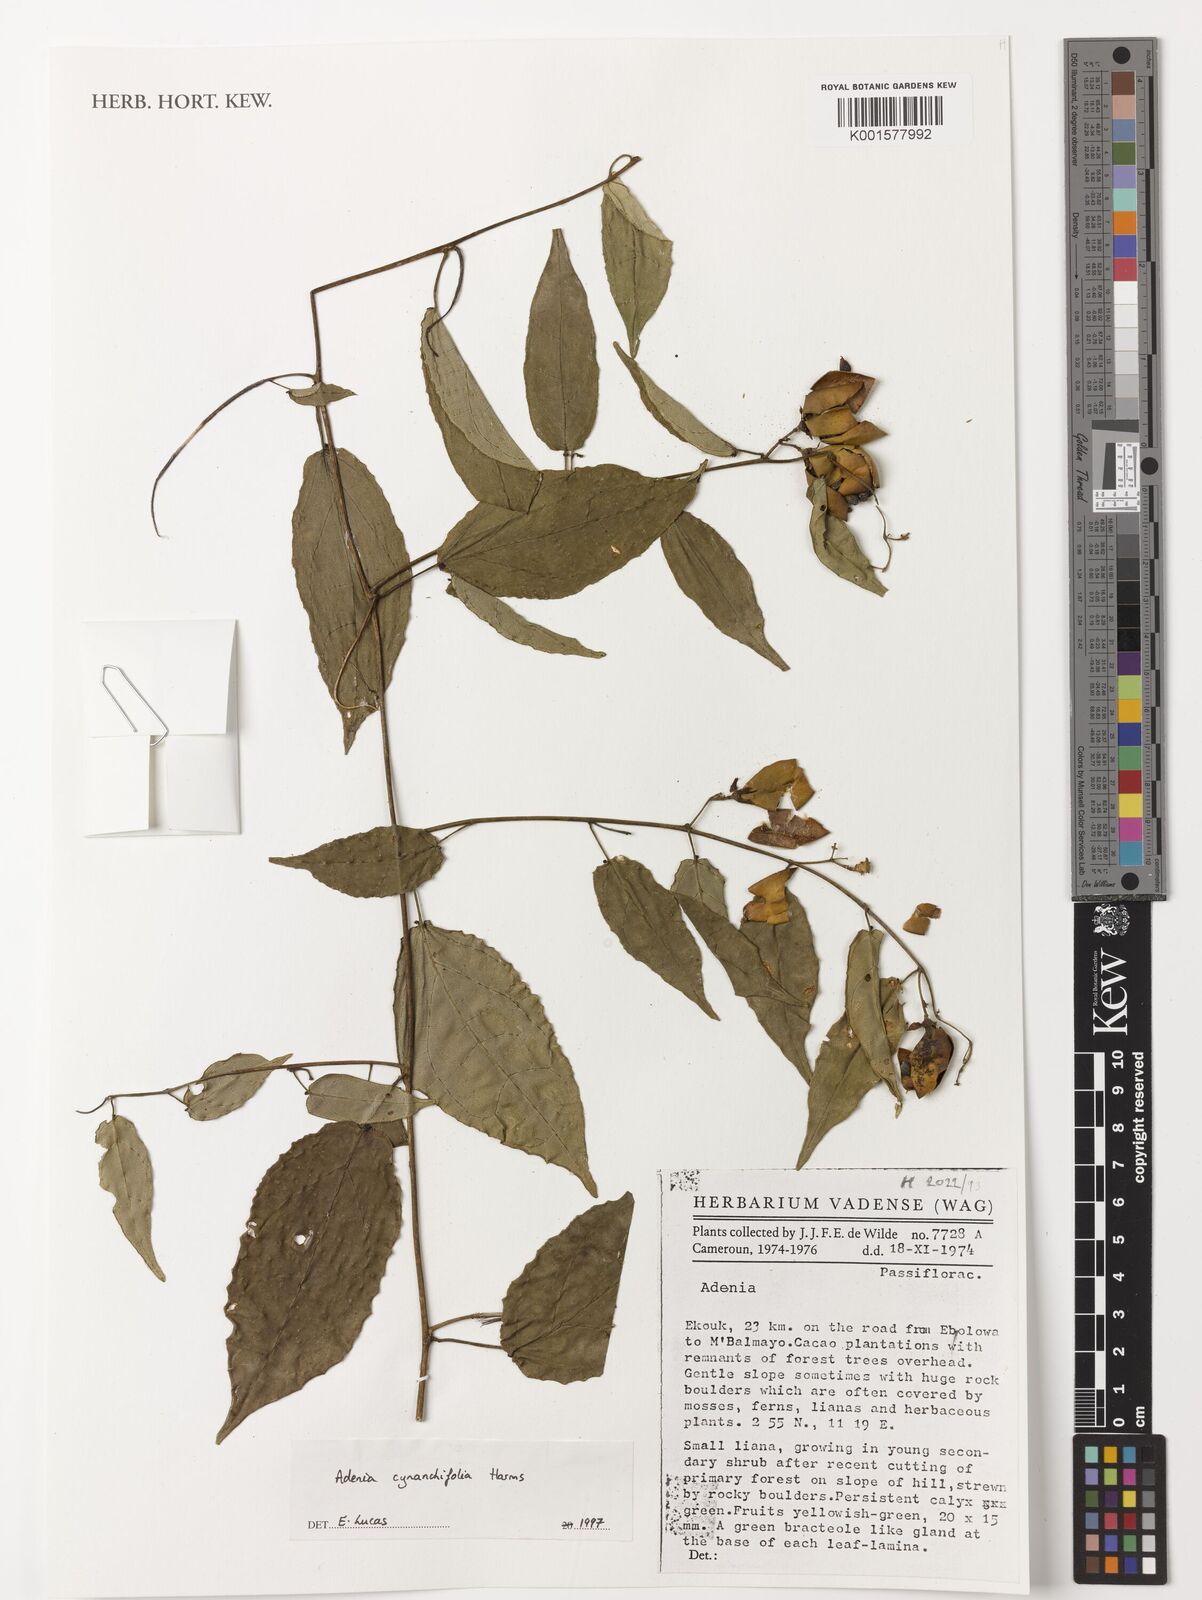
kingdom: Plantae
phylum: Tracheophyta
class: Magnoliopsida
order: Malpighiales
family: Passifloraceae
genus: Adenia
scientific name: Adenia cynanchifolia
